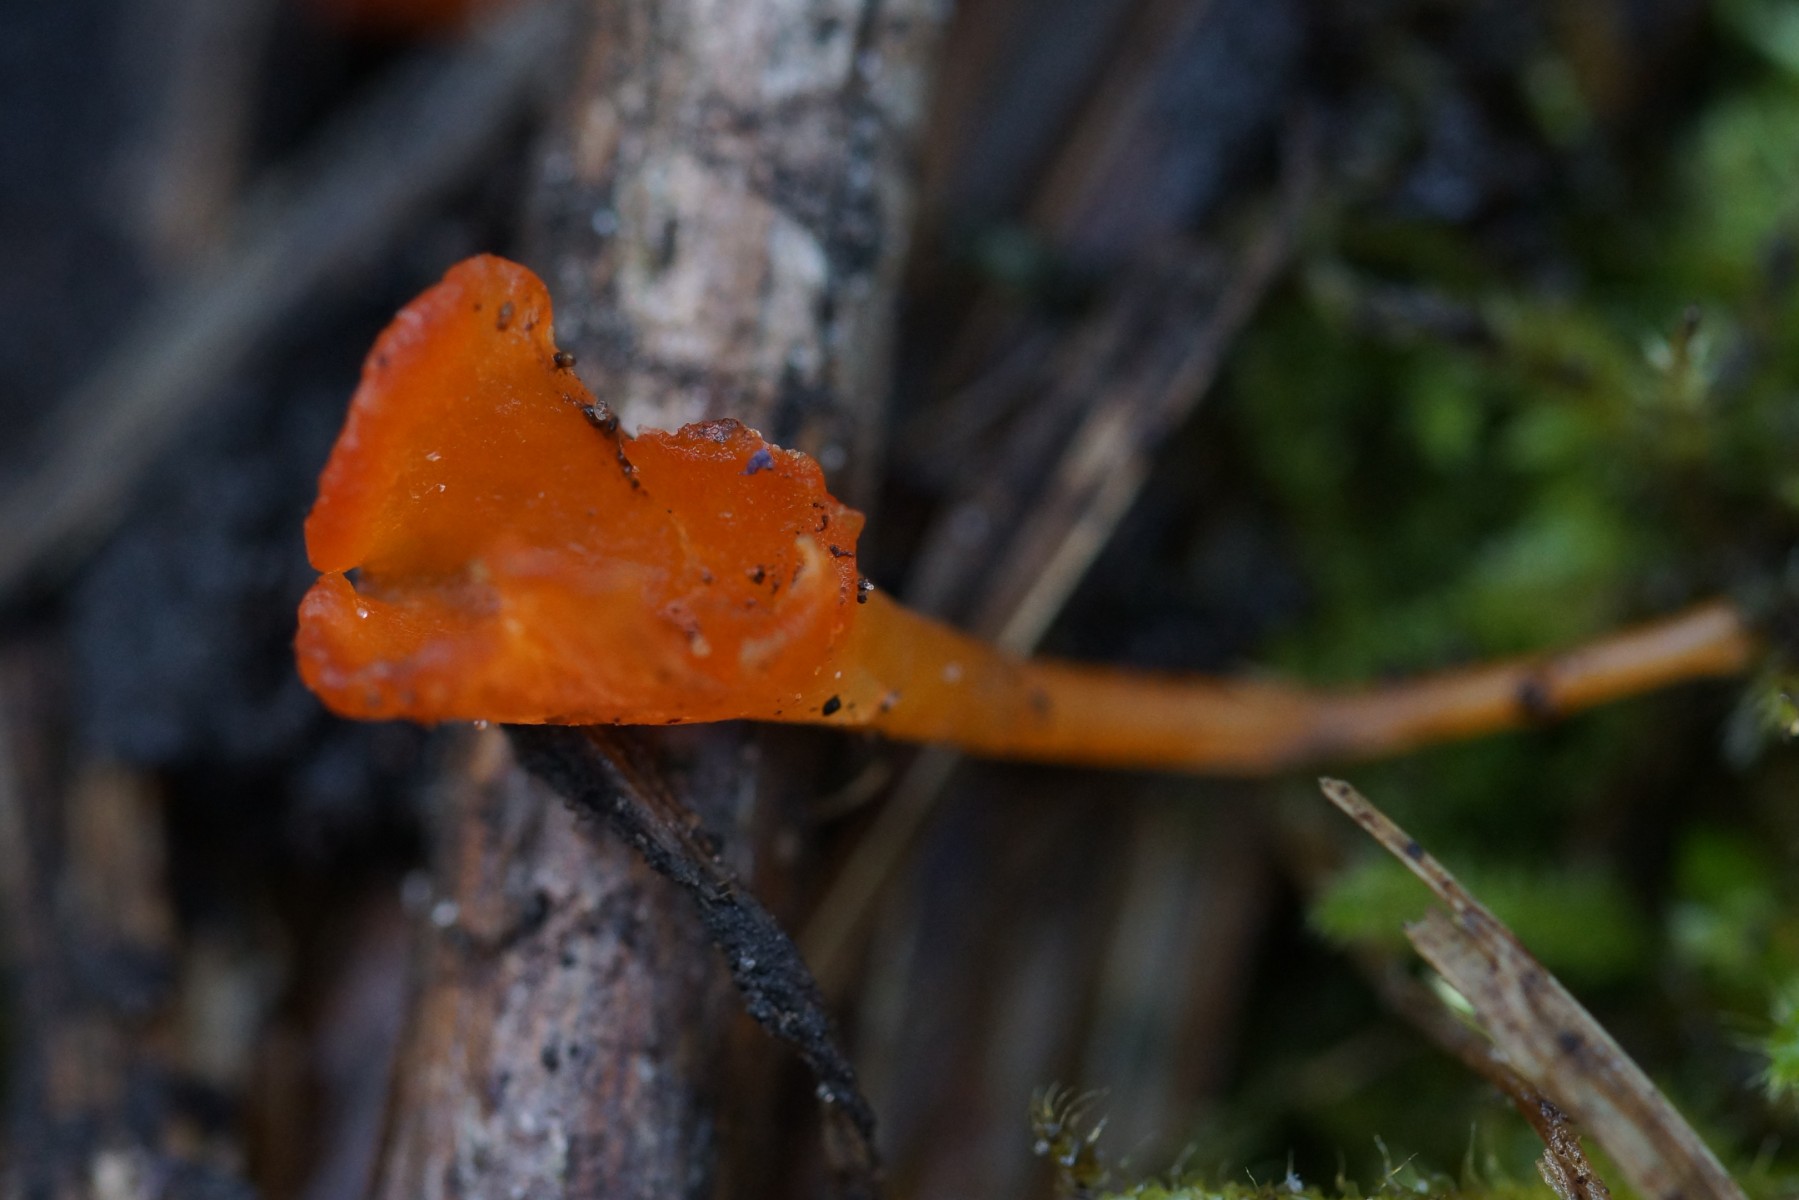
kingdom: Fungi
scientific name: Fungi
